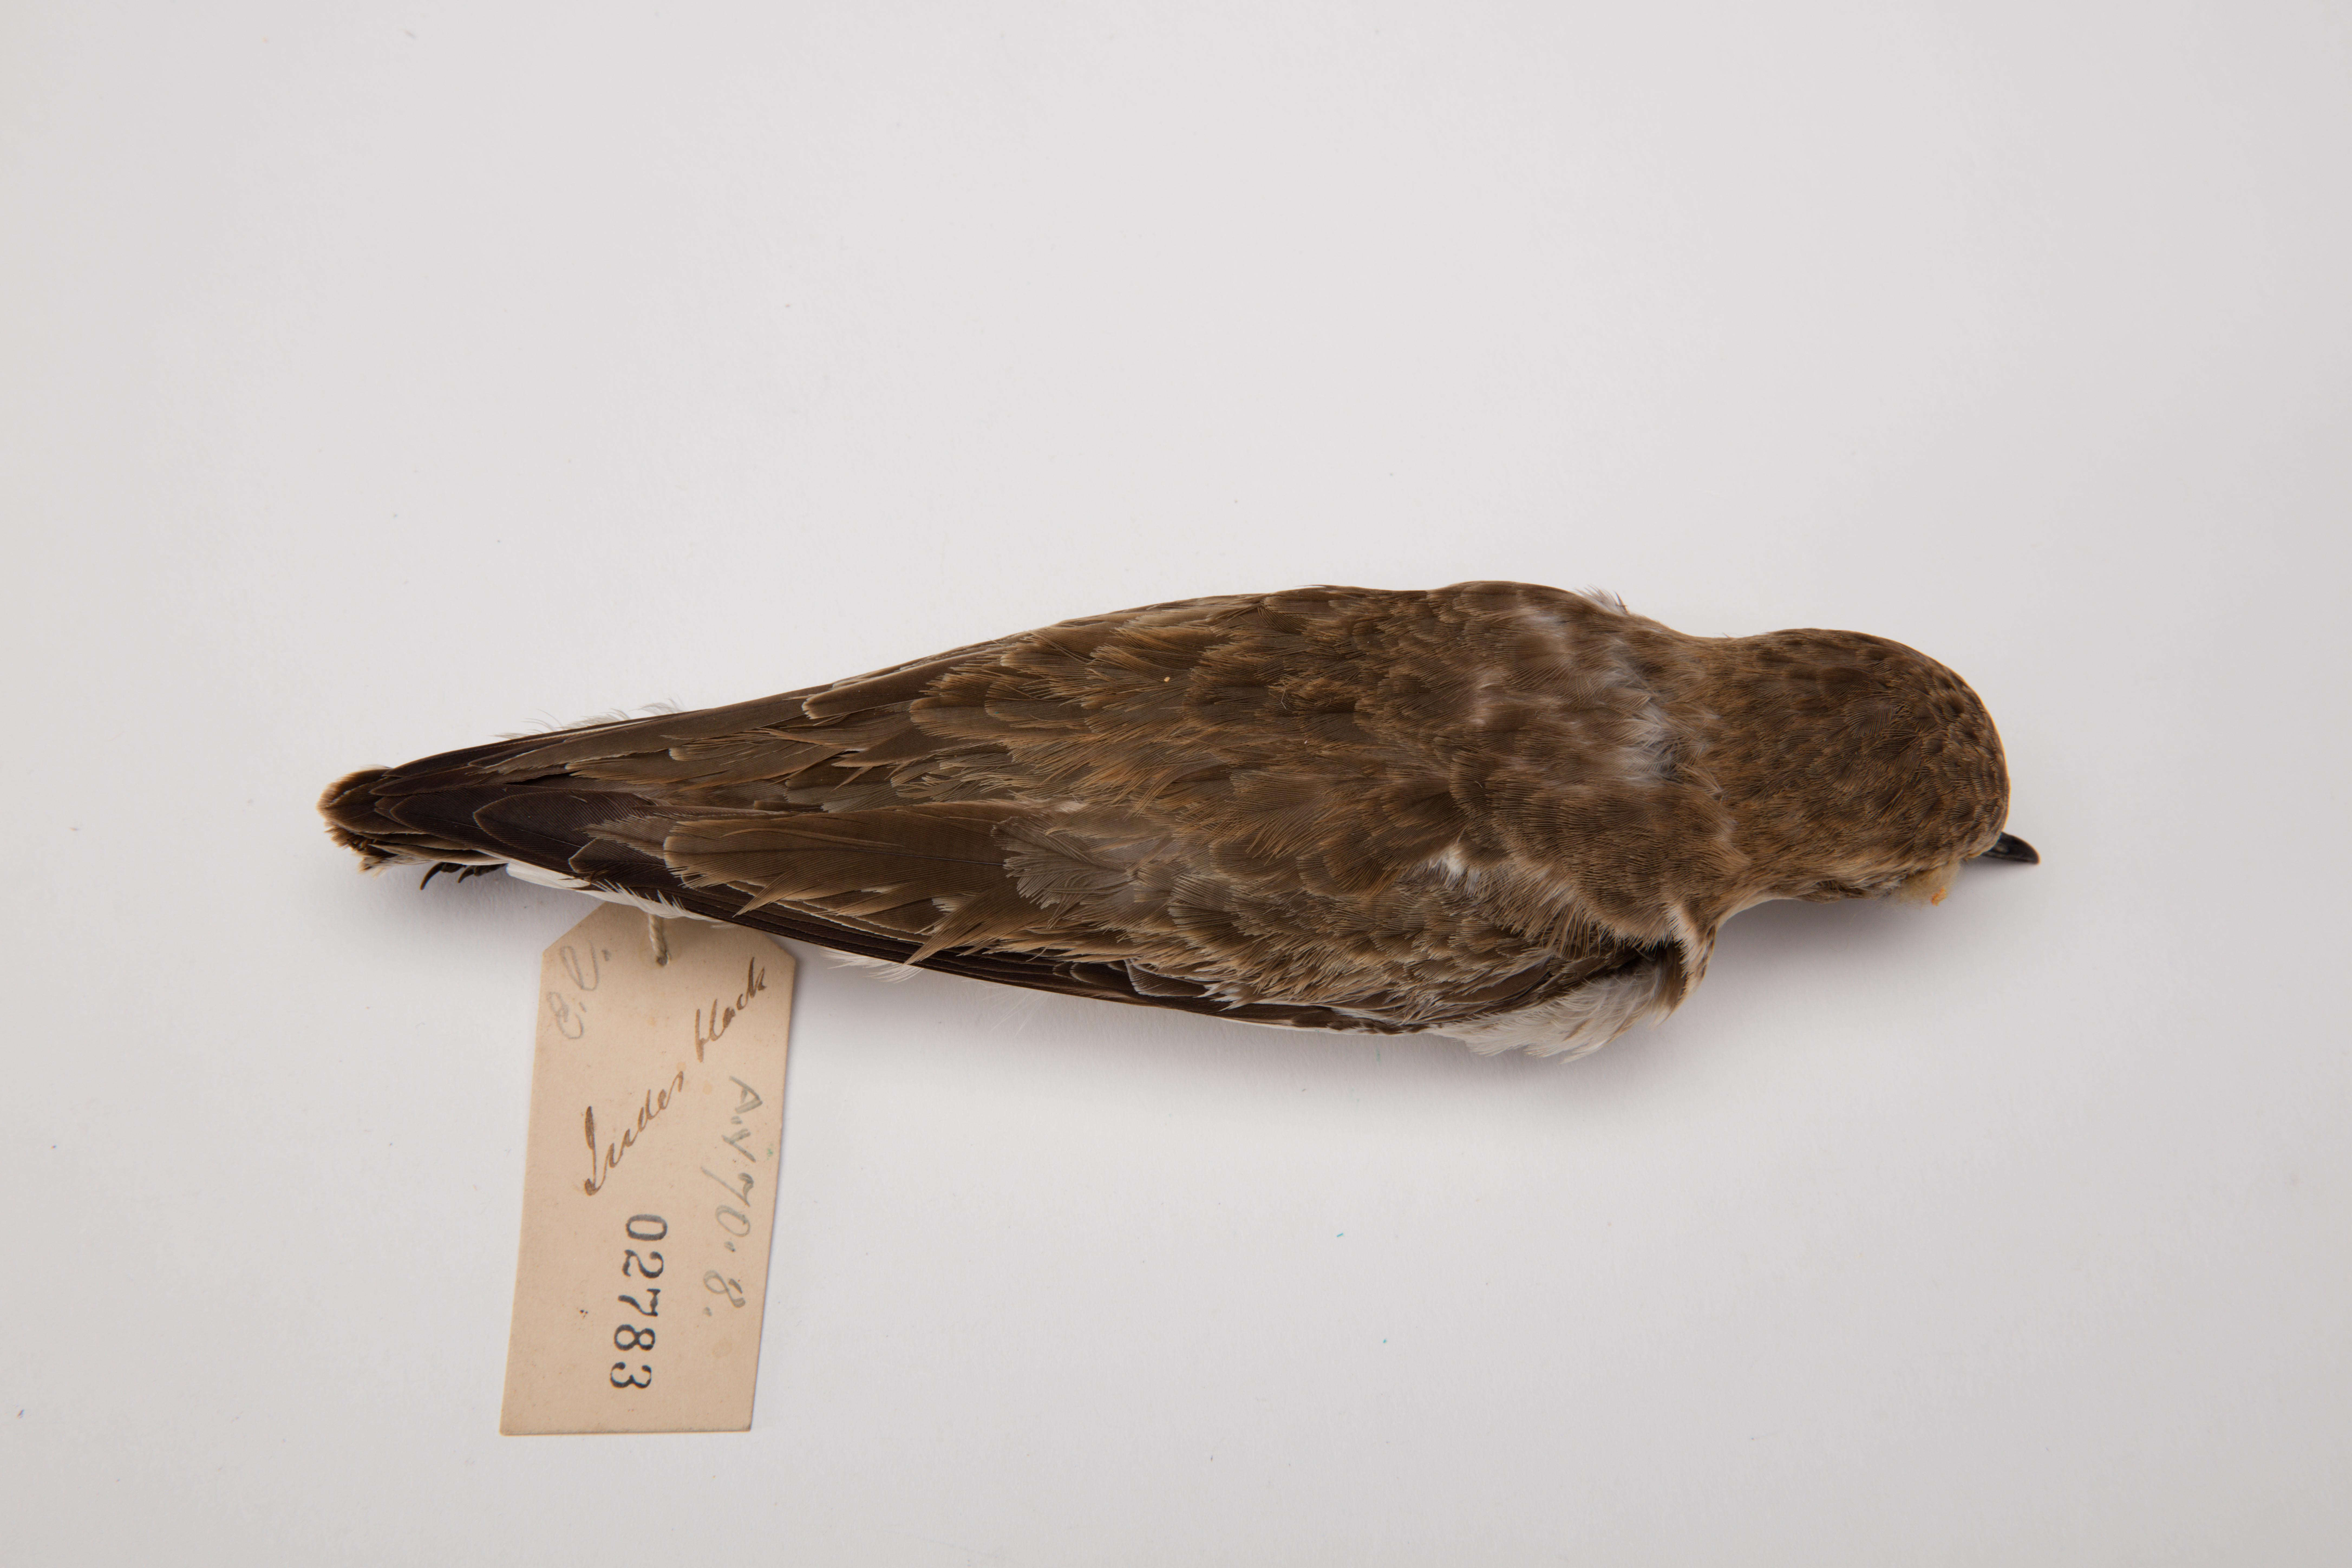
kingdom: Animalia
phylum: Chordata
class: Aves
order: Charadriiformes
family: Charadriidae
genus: Charadrius
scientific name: Charadrius bicinctus
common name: Double-banded plover
